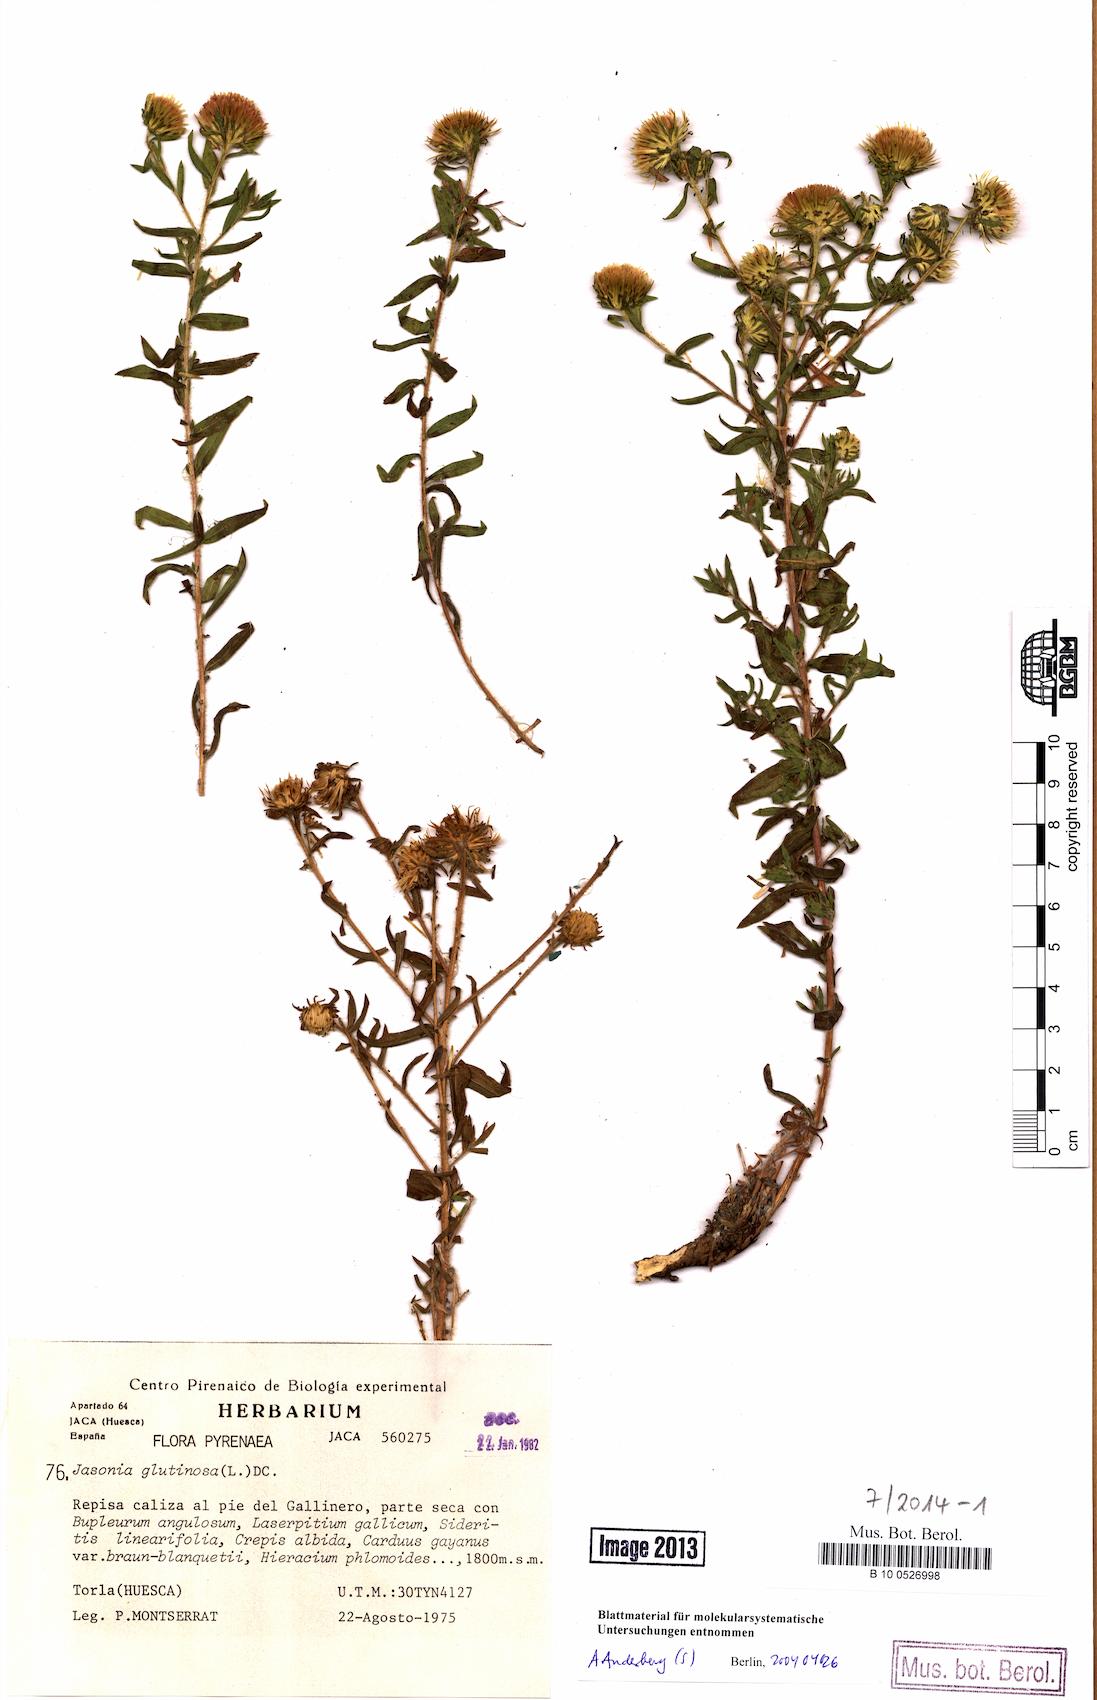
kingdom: Plantae
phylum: Tracheophyta
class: Magnoliopsida
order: Asterales
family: Asteraceae
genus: Chiliadenus
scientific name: Chiliadenus glutinosus
